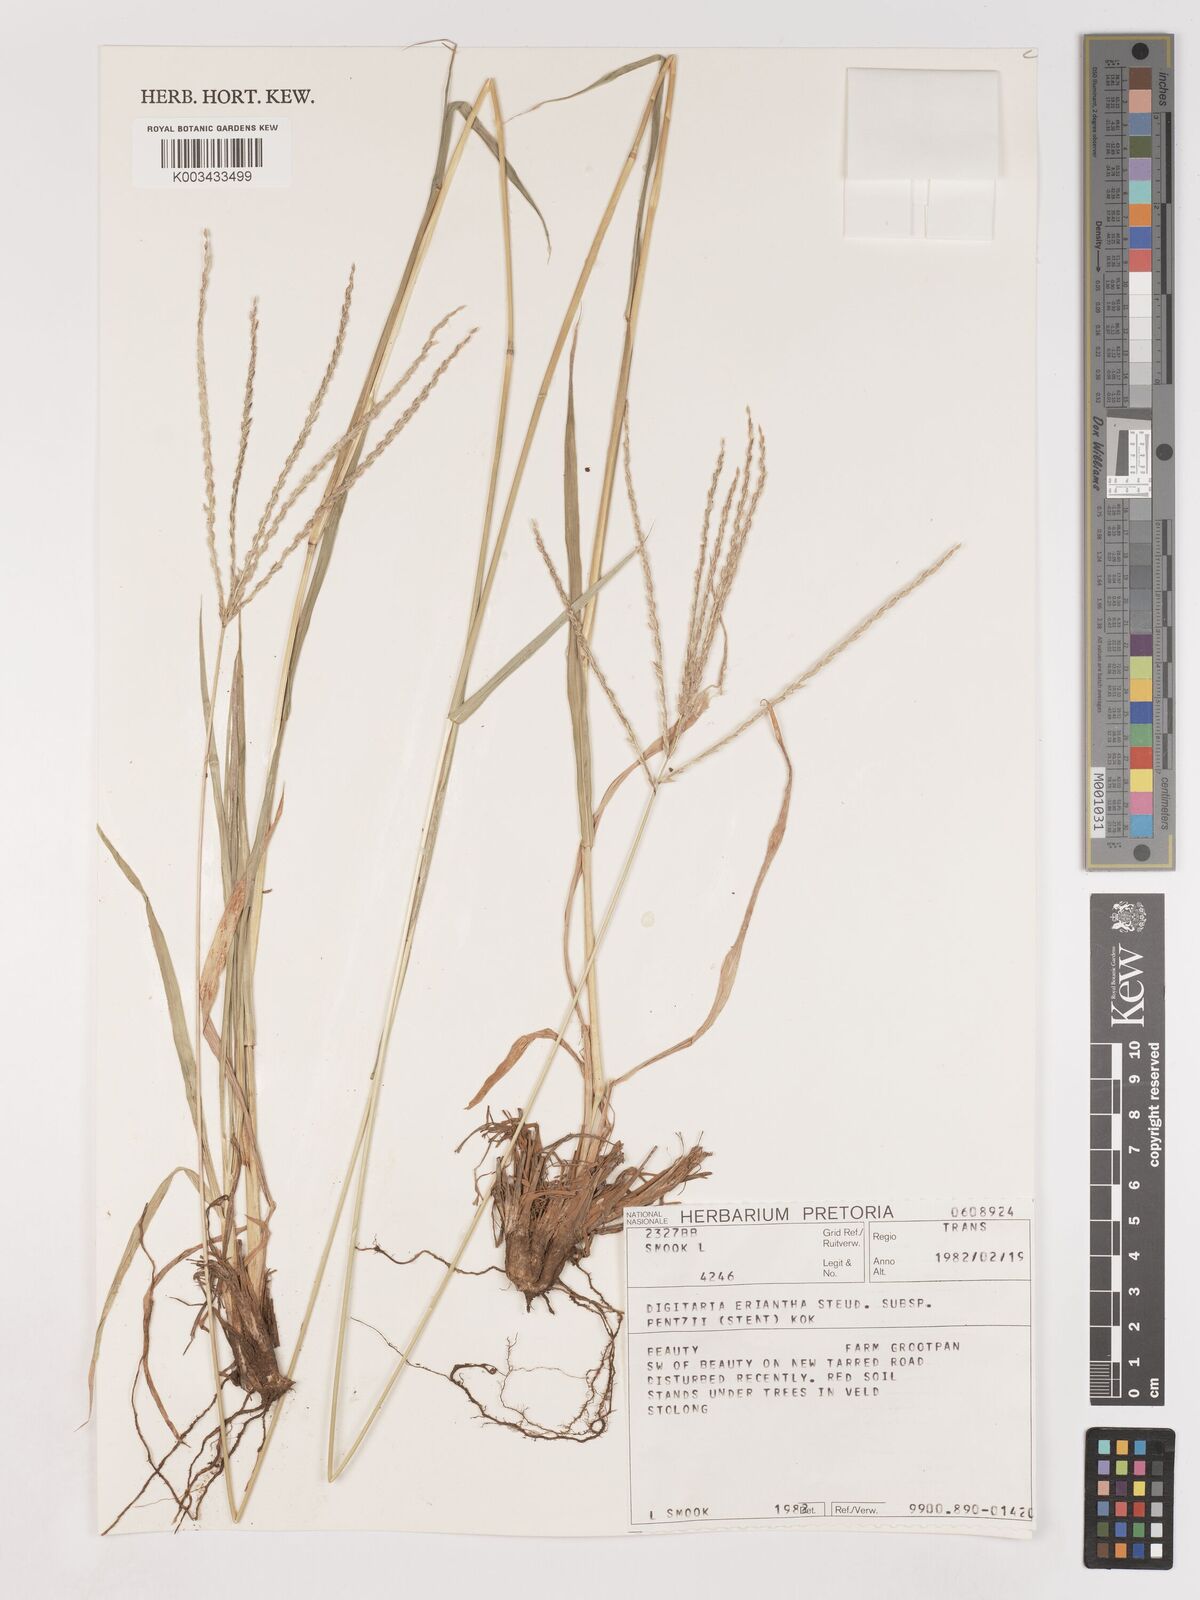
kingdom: Plantae
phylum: Tracheophyta
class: Liliopsida
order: Poales
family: Poaceae
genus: Digitaria
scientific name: Digitaria eriantha
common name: Digitgrass
